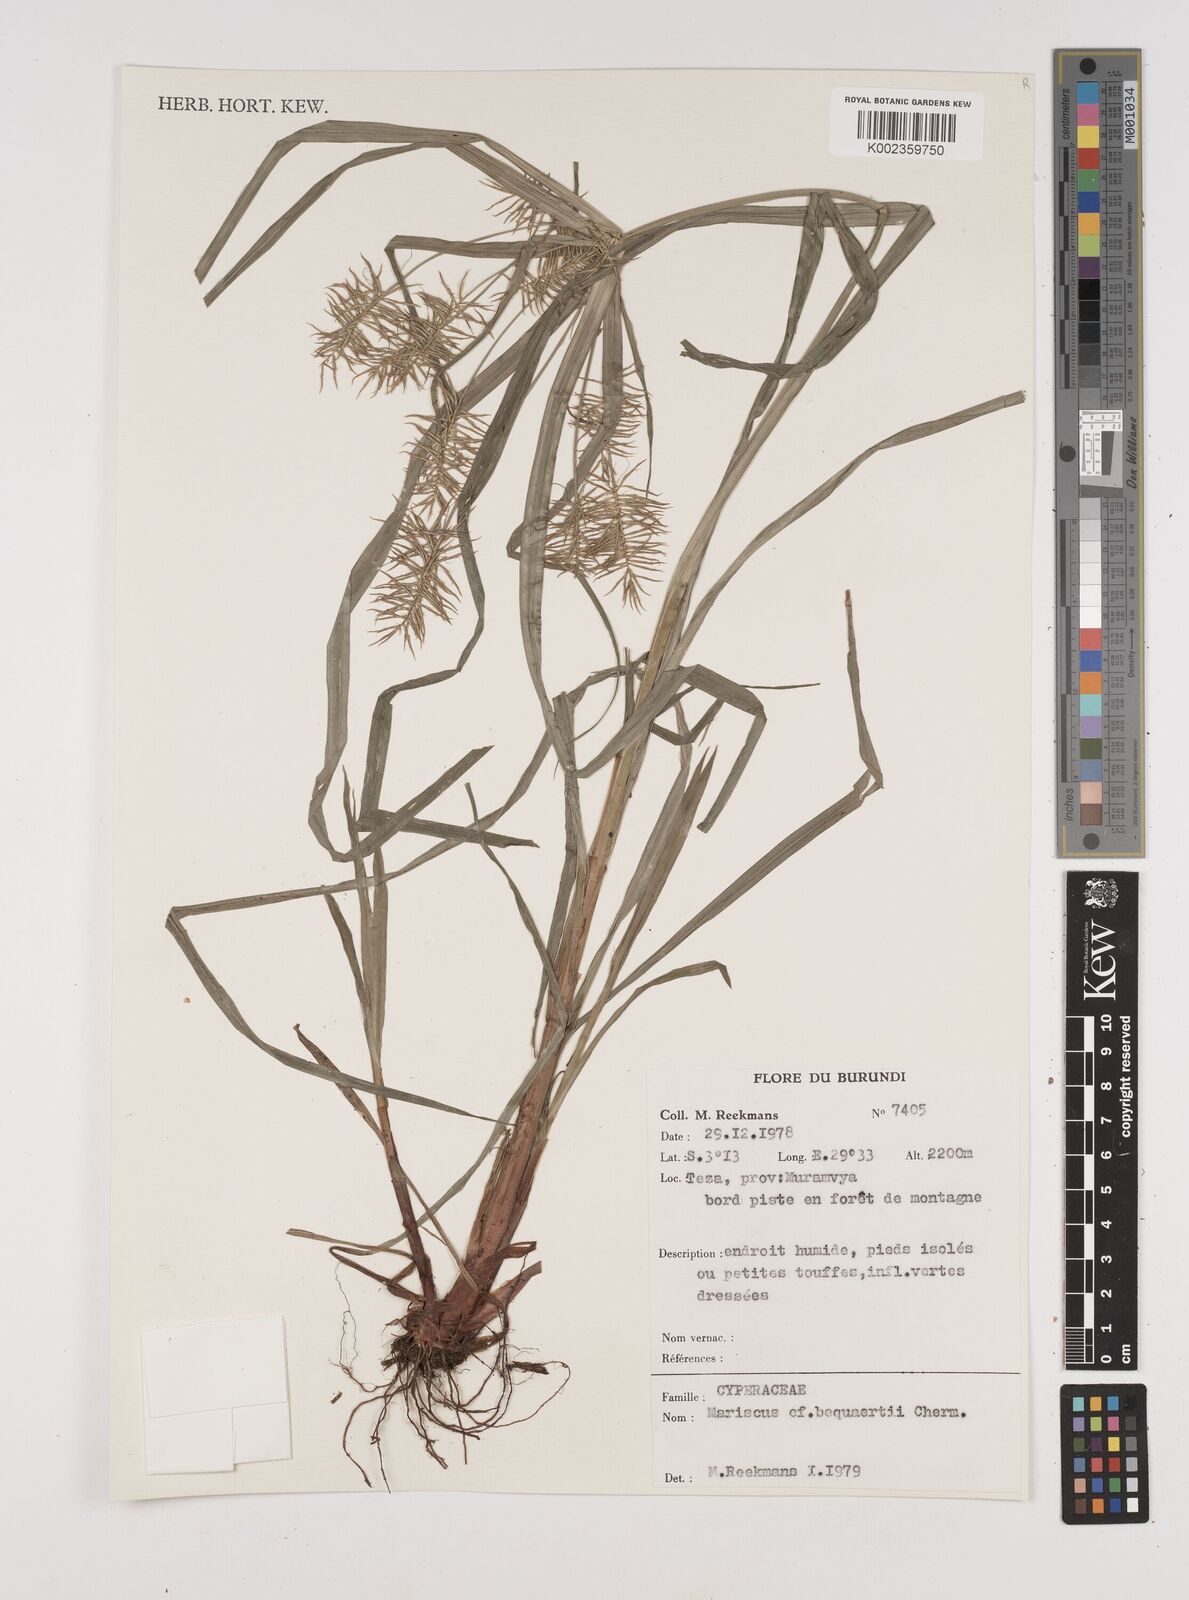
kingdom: Plantae
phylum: Tracheophyta
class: Liliopsida
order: Poales
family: Cyperaceae
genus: Cyperus
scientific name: Cyperus ferrugineoviridis
